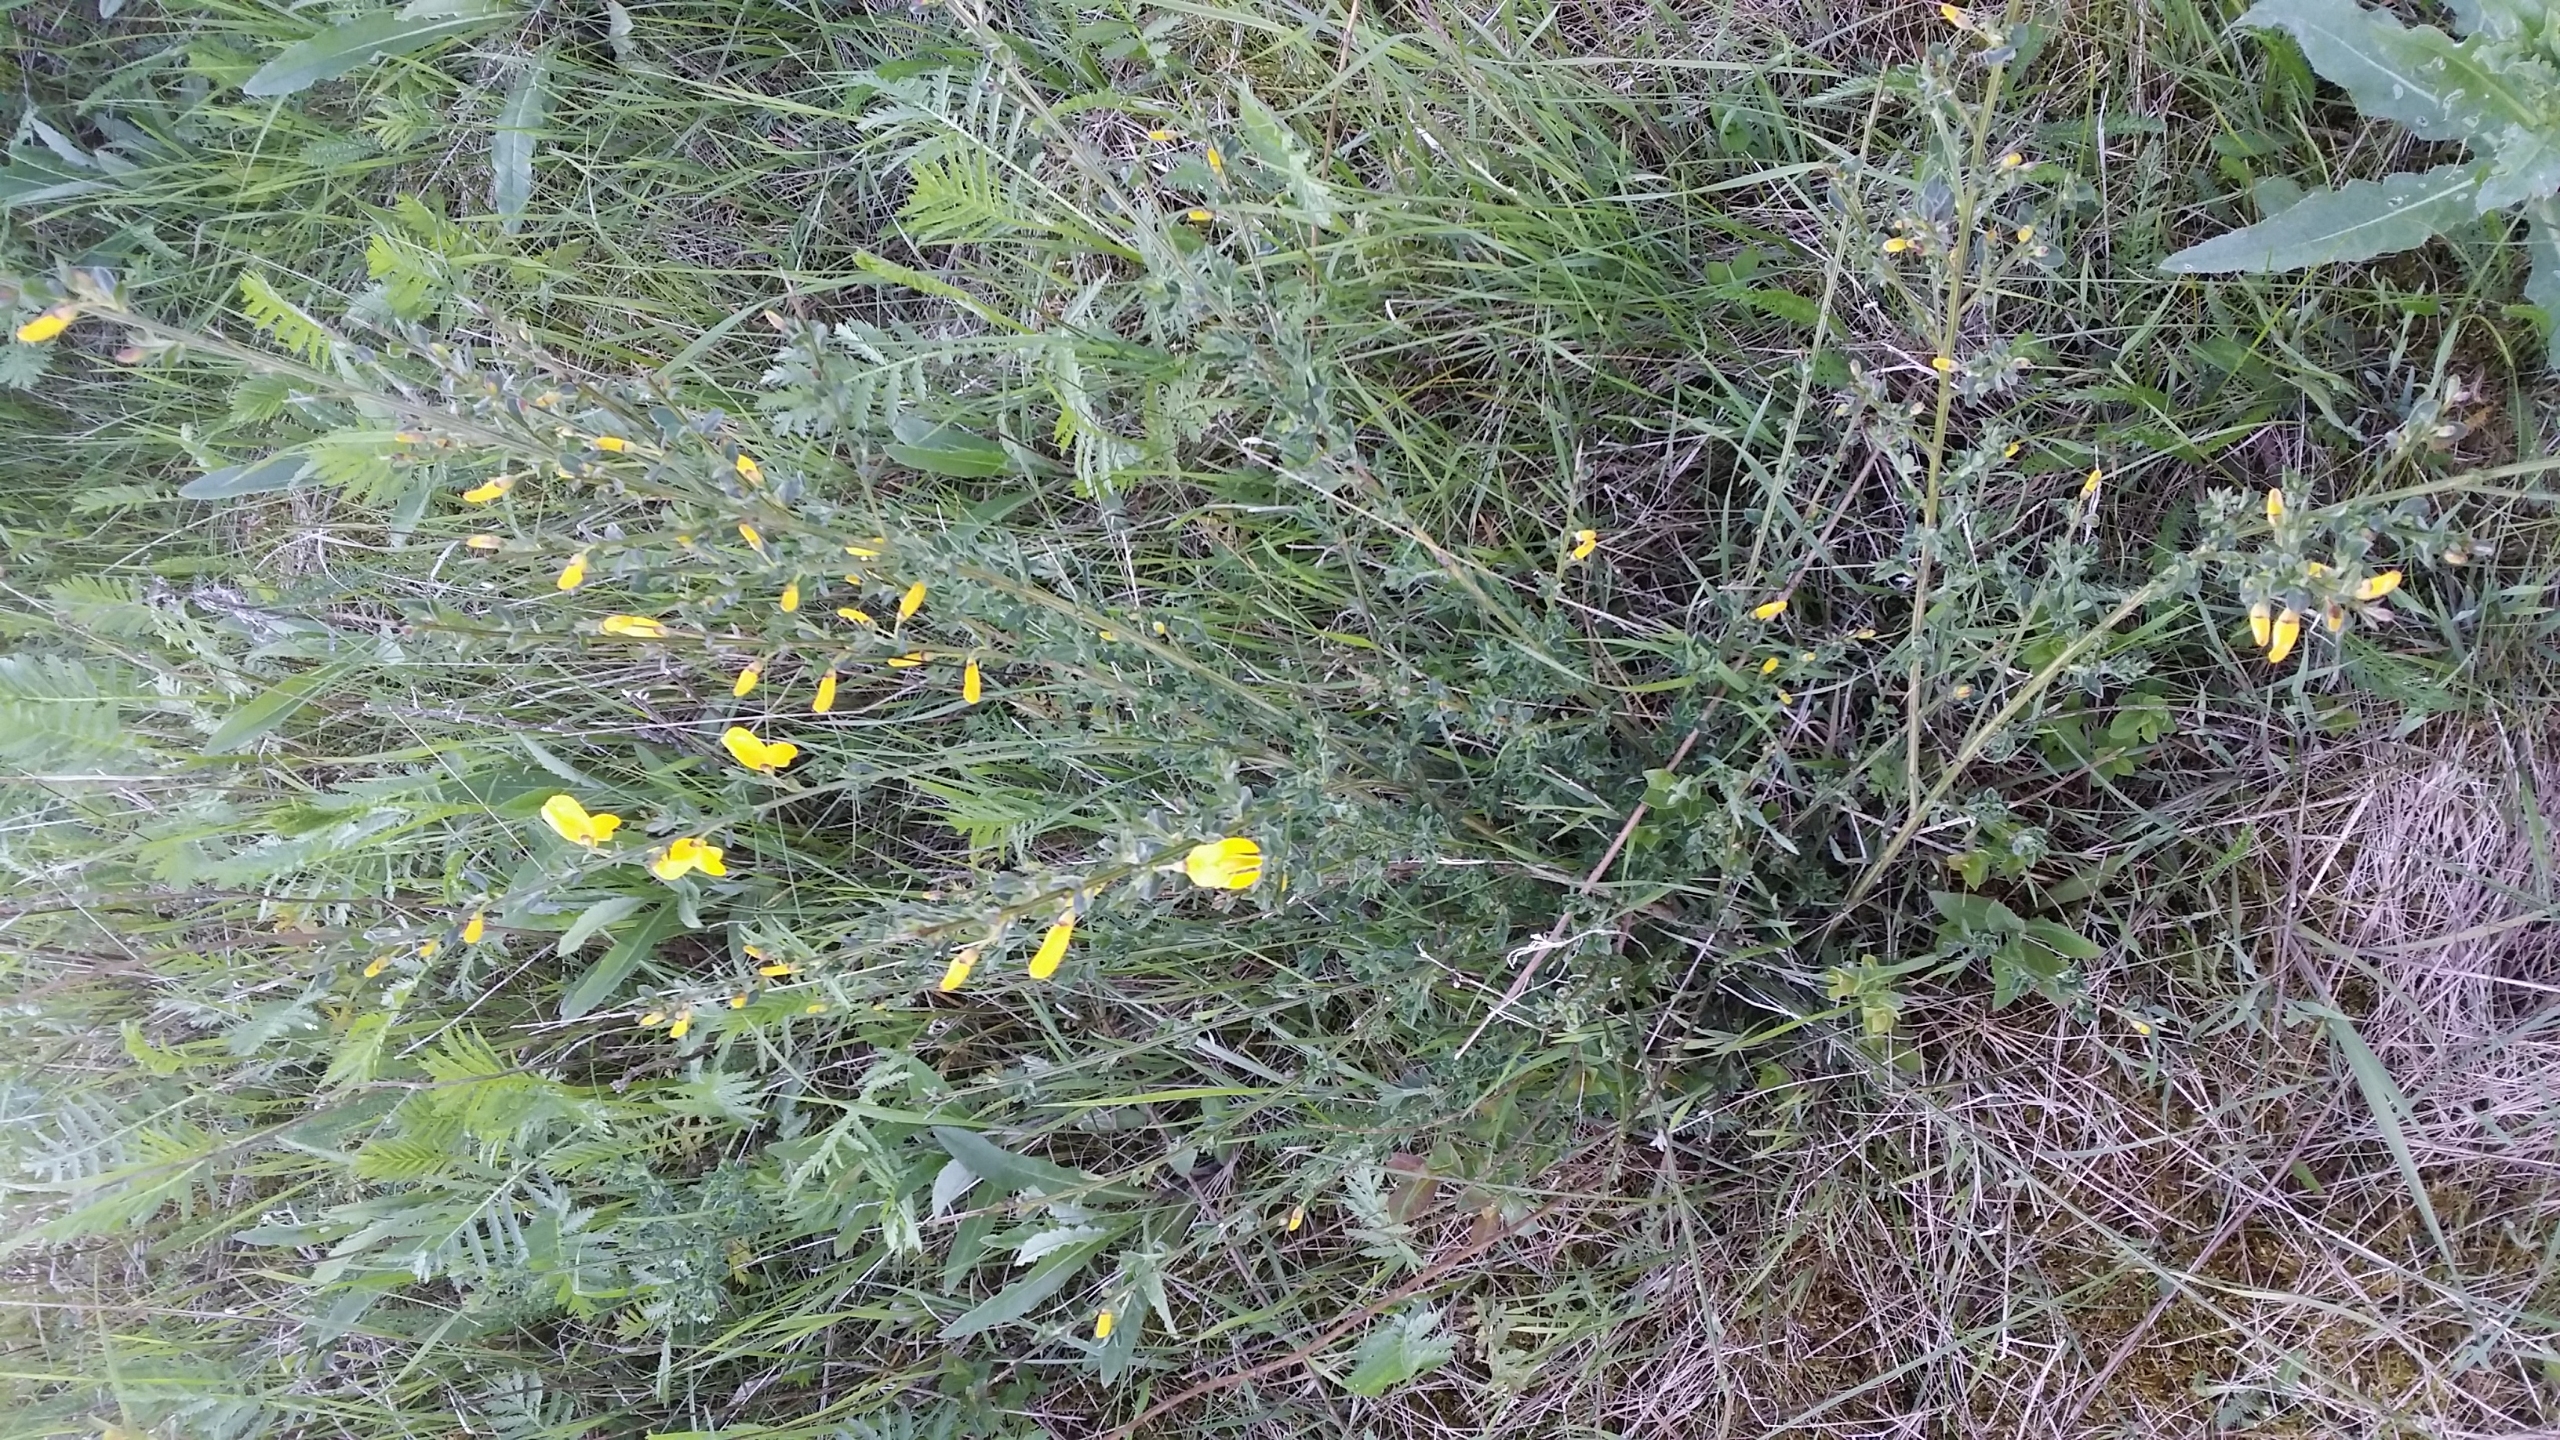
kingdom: Plantae
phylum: Tracheophyta
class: Magnoliopsida
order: Fabales
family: Fabaceae
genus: Cytisus
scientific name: Cytisus scoparius
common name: Almindelig gyvel
